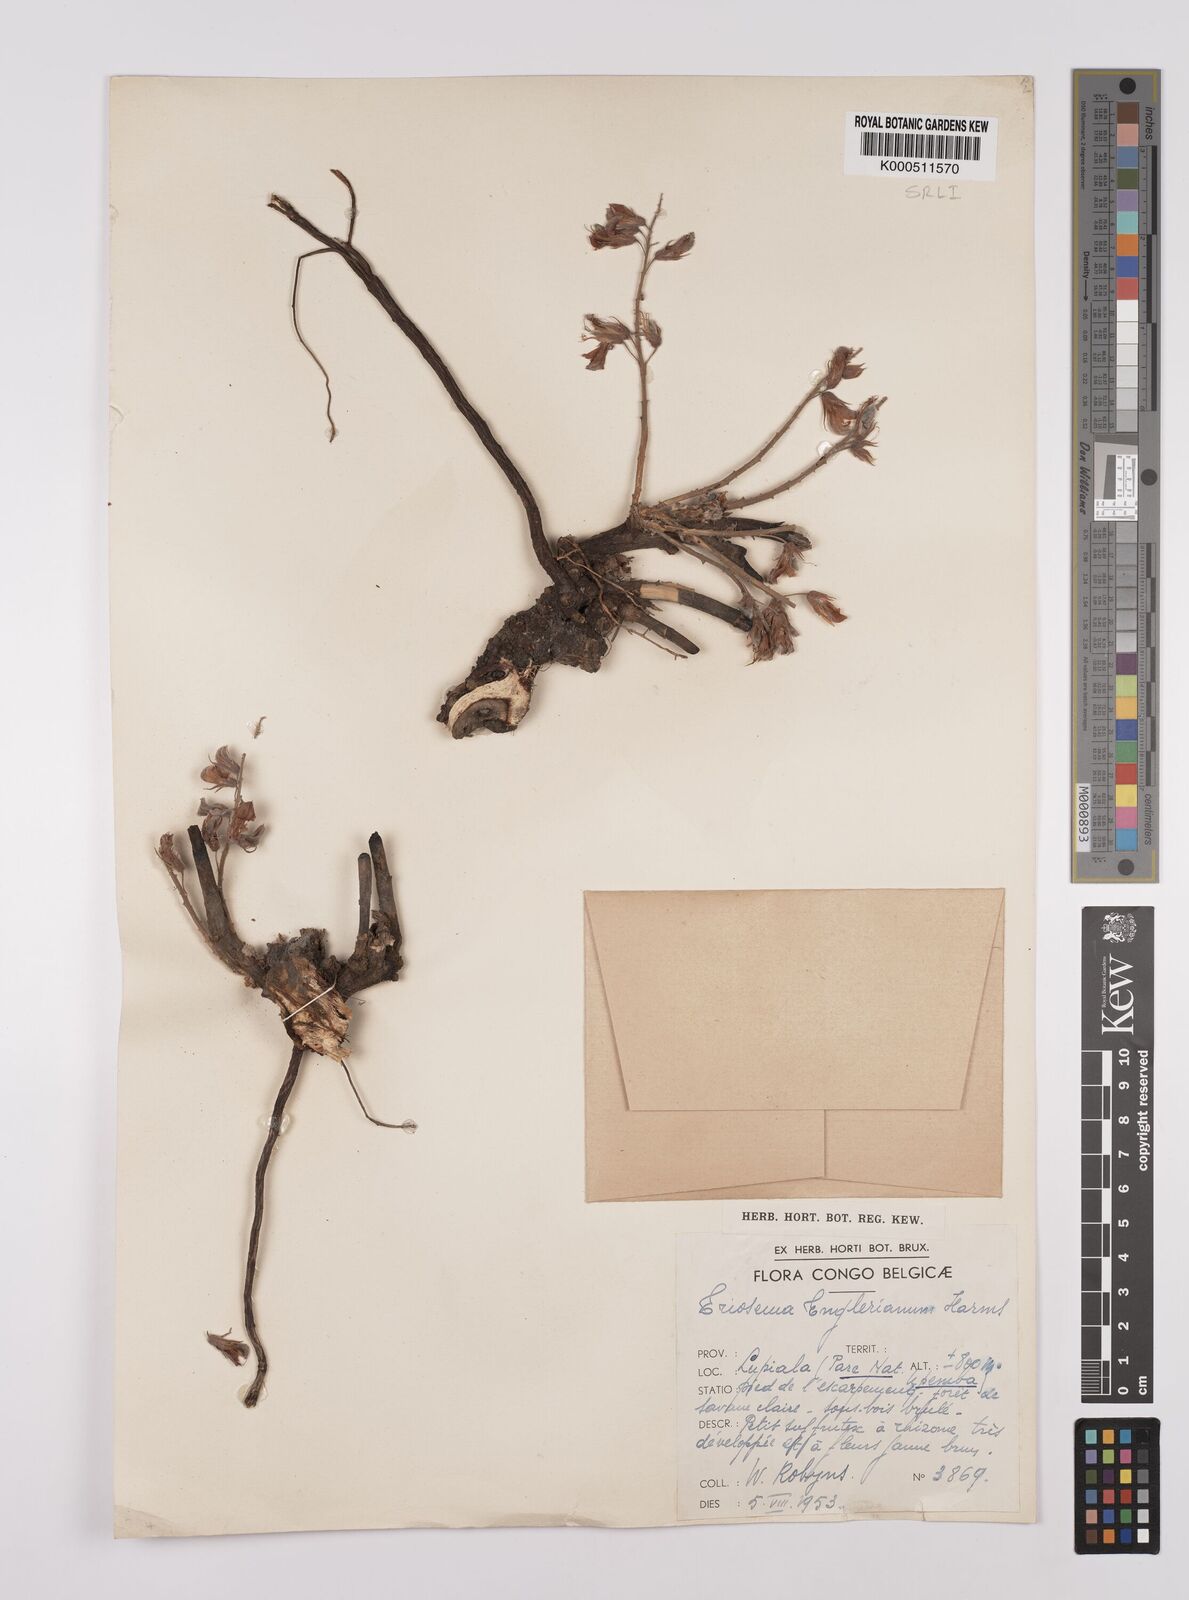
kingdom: Plantae
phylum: Tracheophyta
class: Magnoliopsida
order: Fabales
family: Fabaceae
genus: Eriosema
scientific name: Eriosema englerianum
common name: Blue bush
